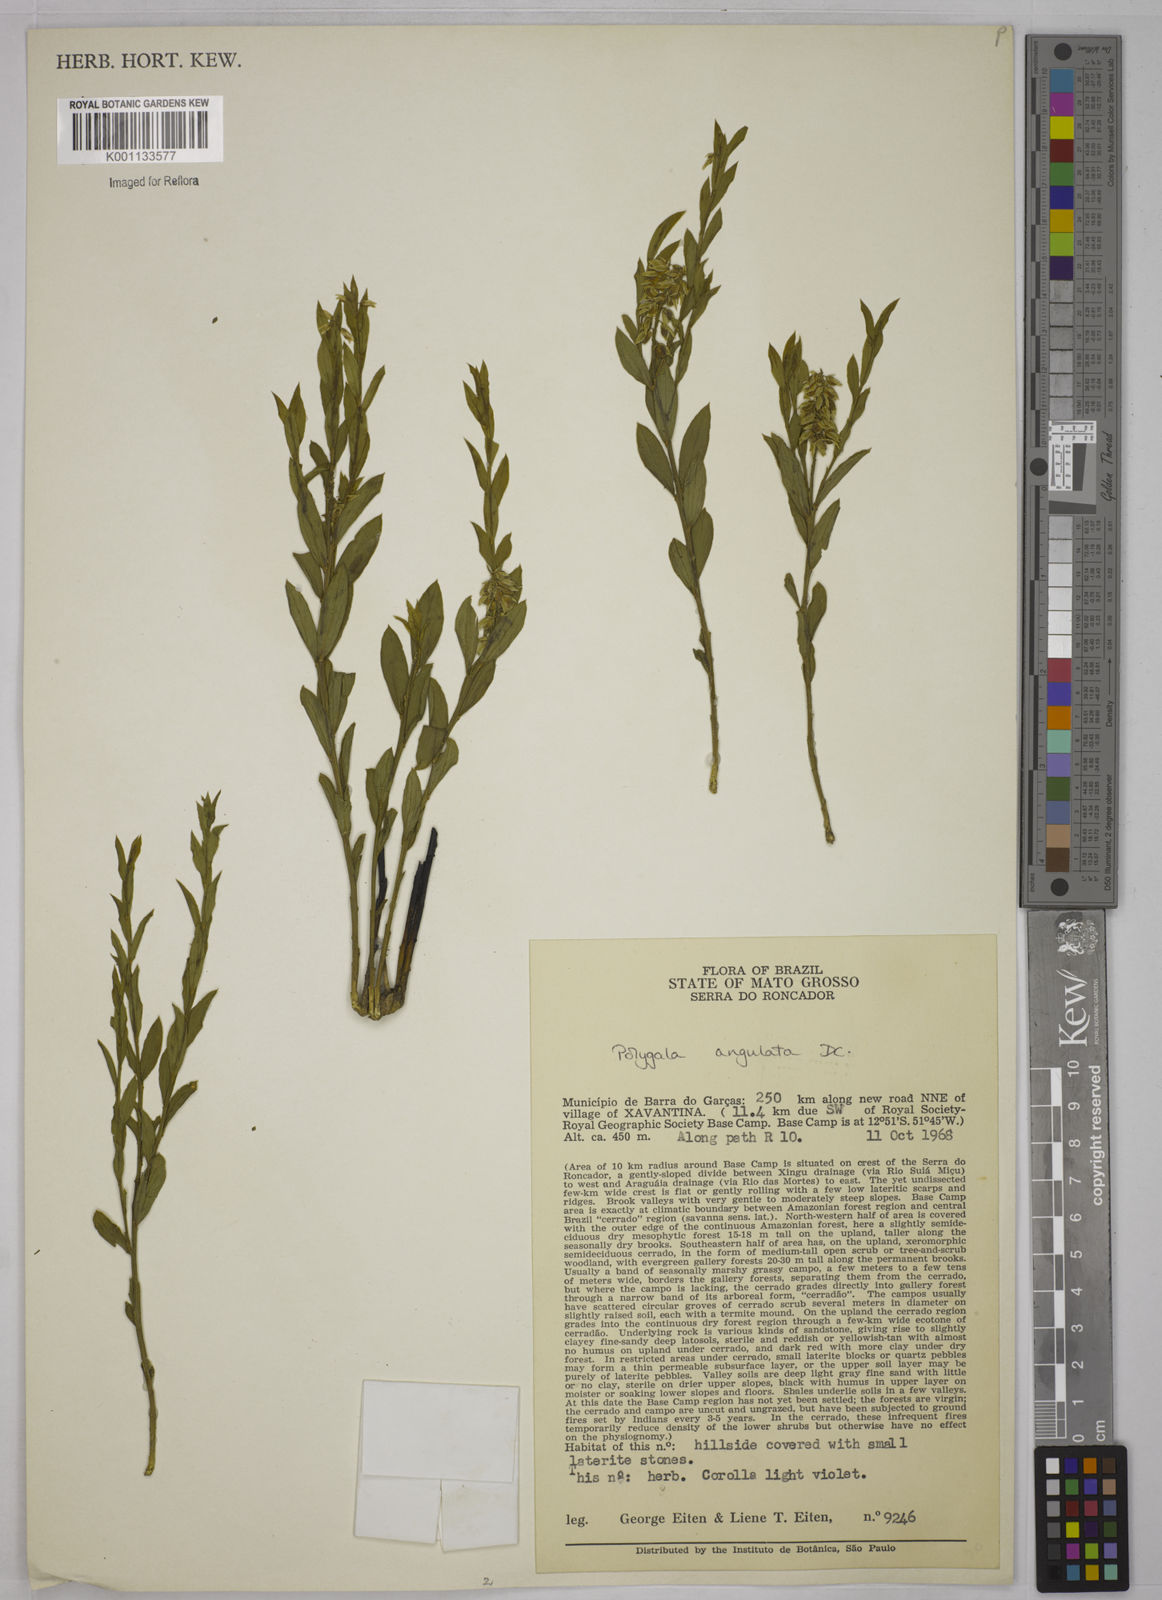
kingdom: Plantae
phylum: Tracheophyta
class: Magnoliopsida
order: Fabales
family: Polygalaceae
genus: Polygala
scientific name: Polygala poaya
